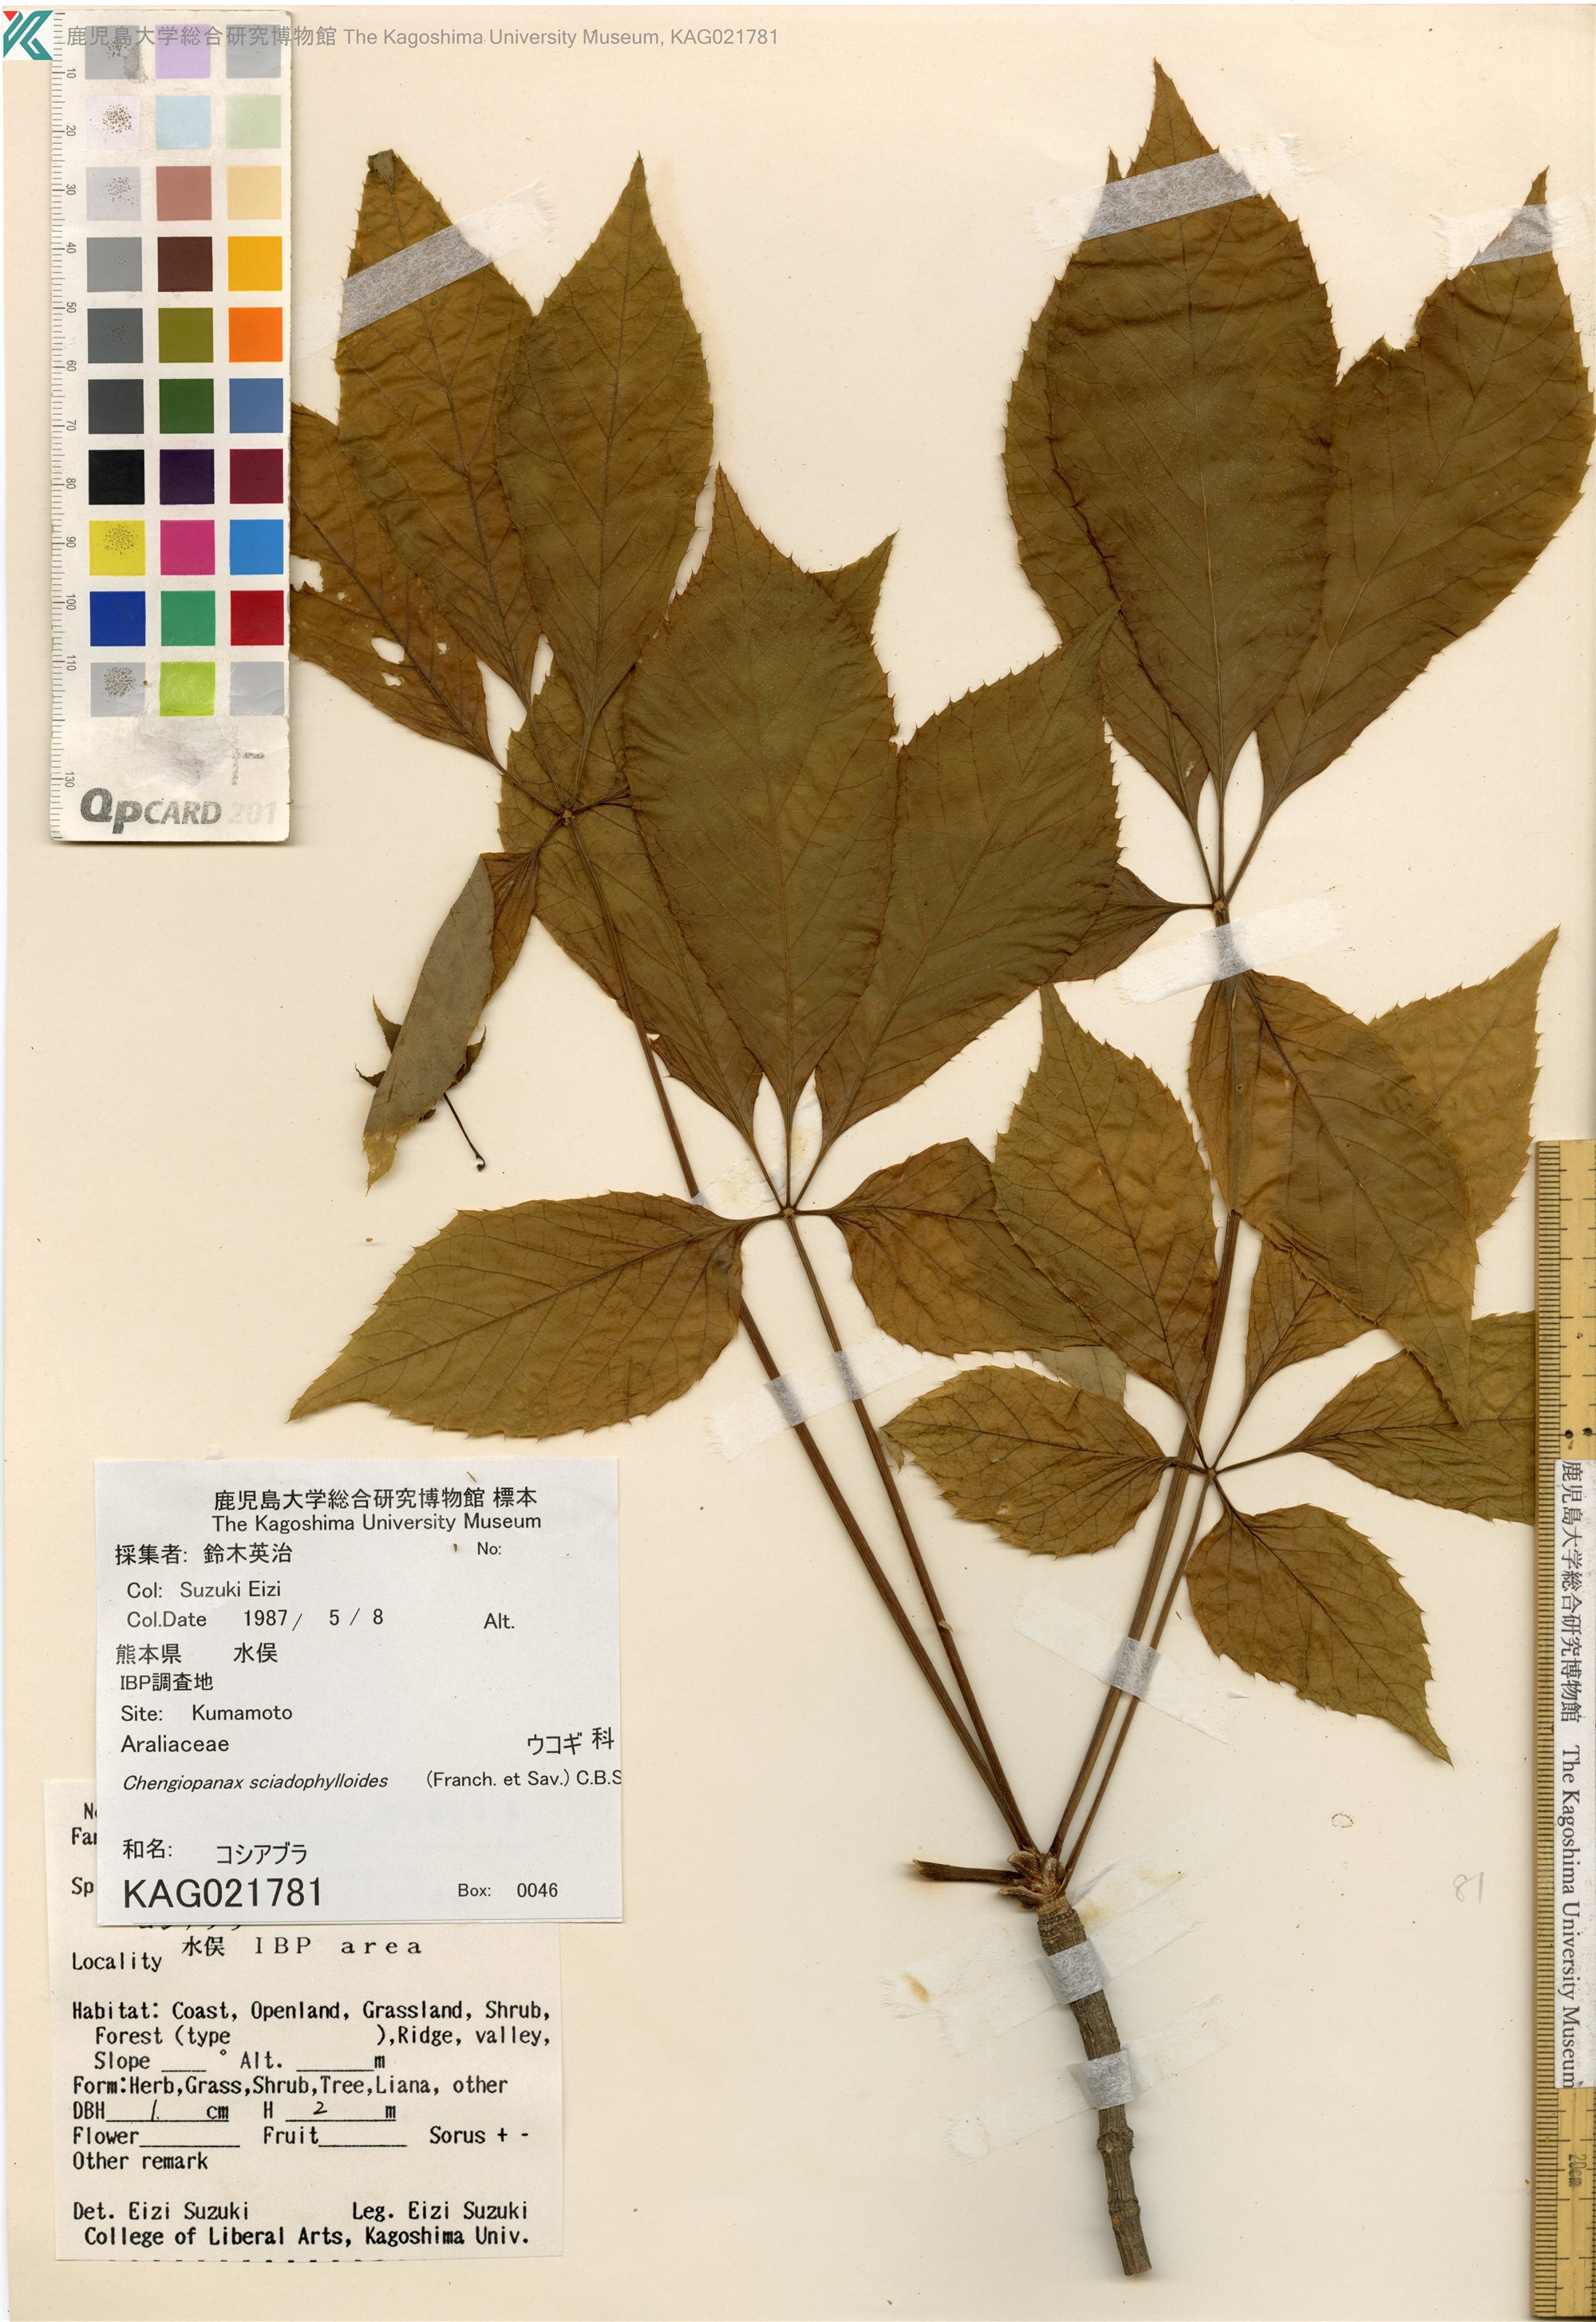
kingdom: Plantae
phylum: Tracheophyta
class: Magnoliopsida
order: Apiales
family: Araliaceae
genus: Chengiopanax
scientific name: Chengiopanax sciadophylloides
